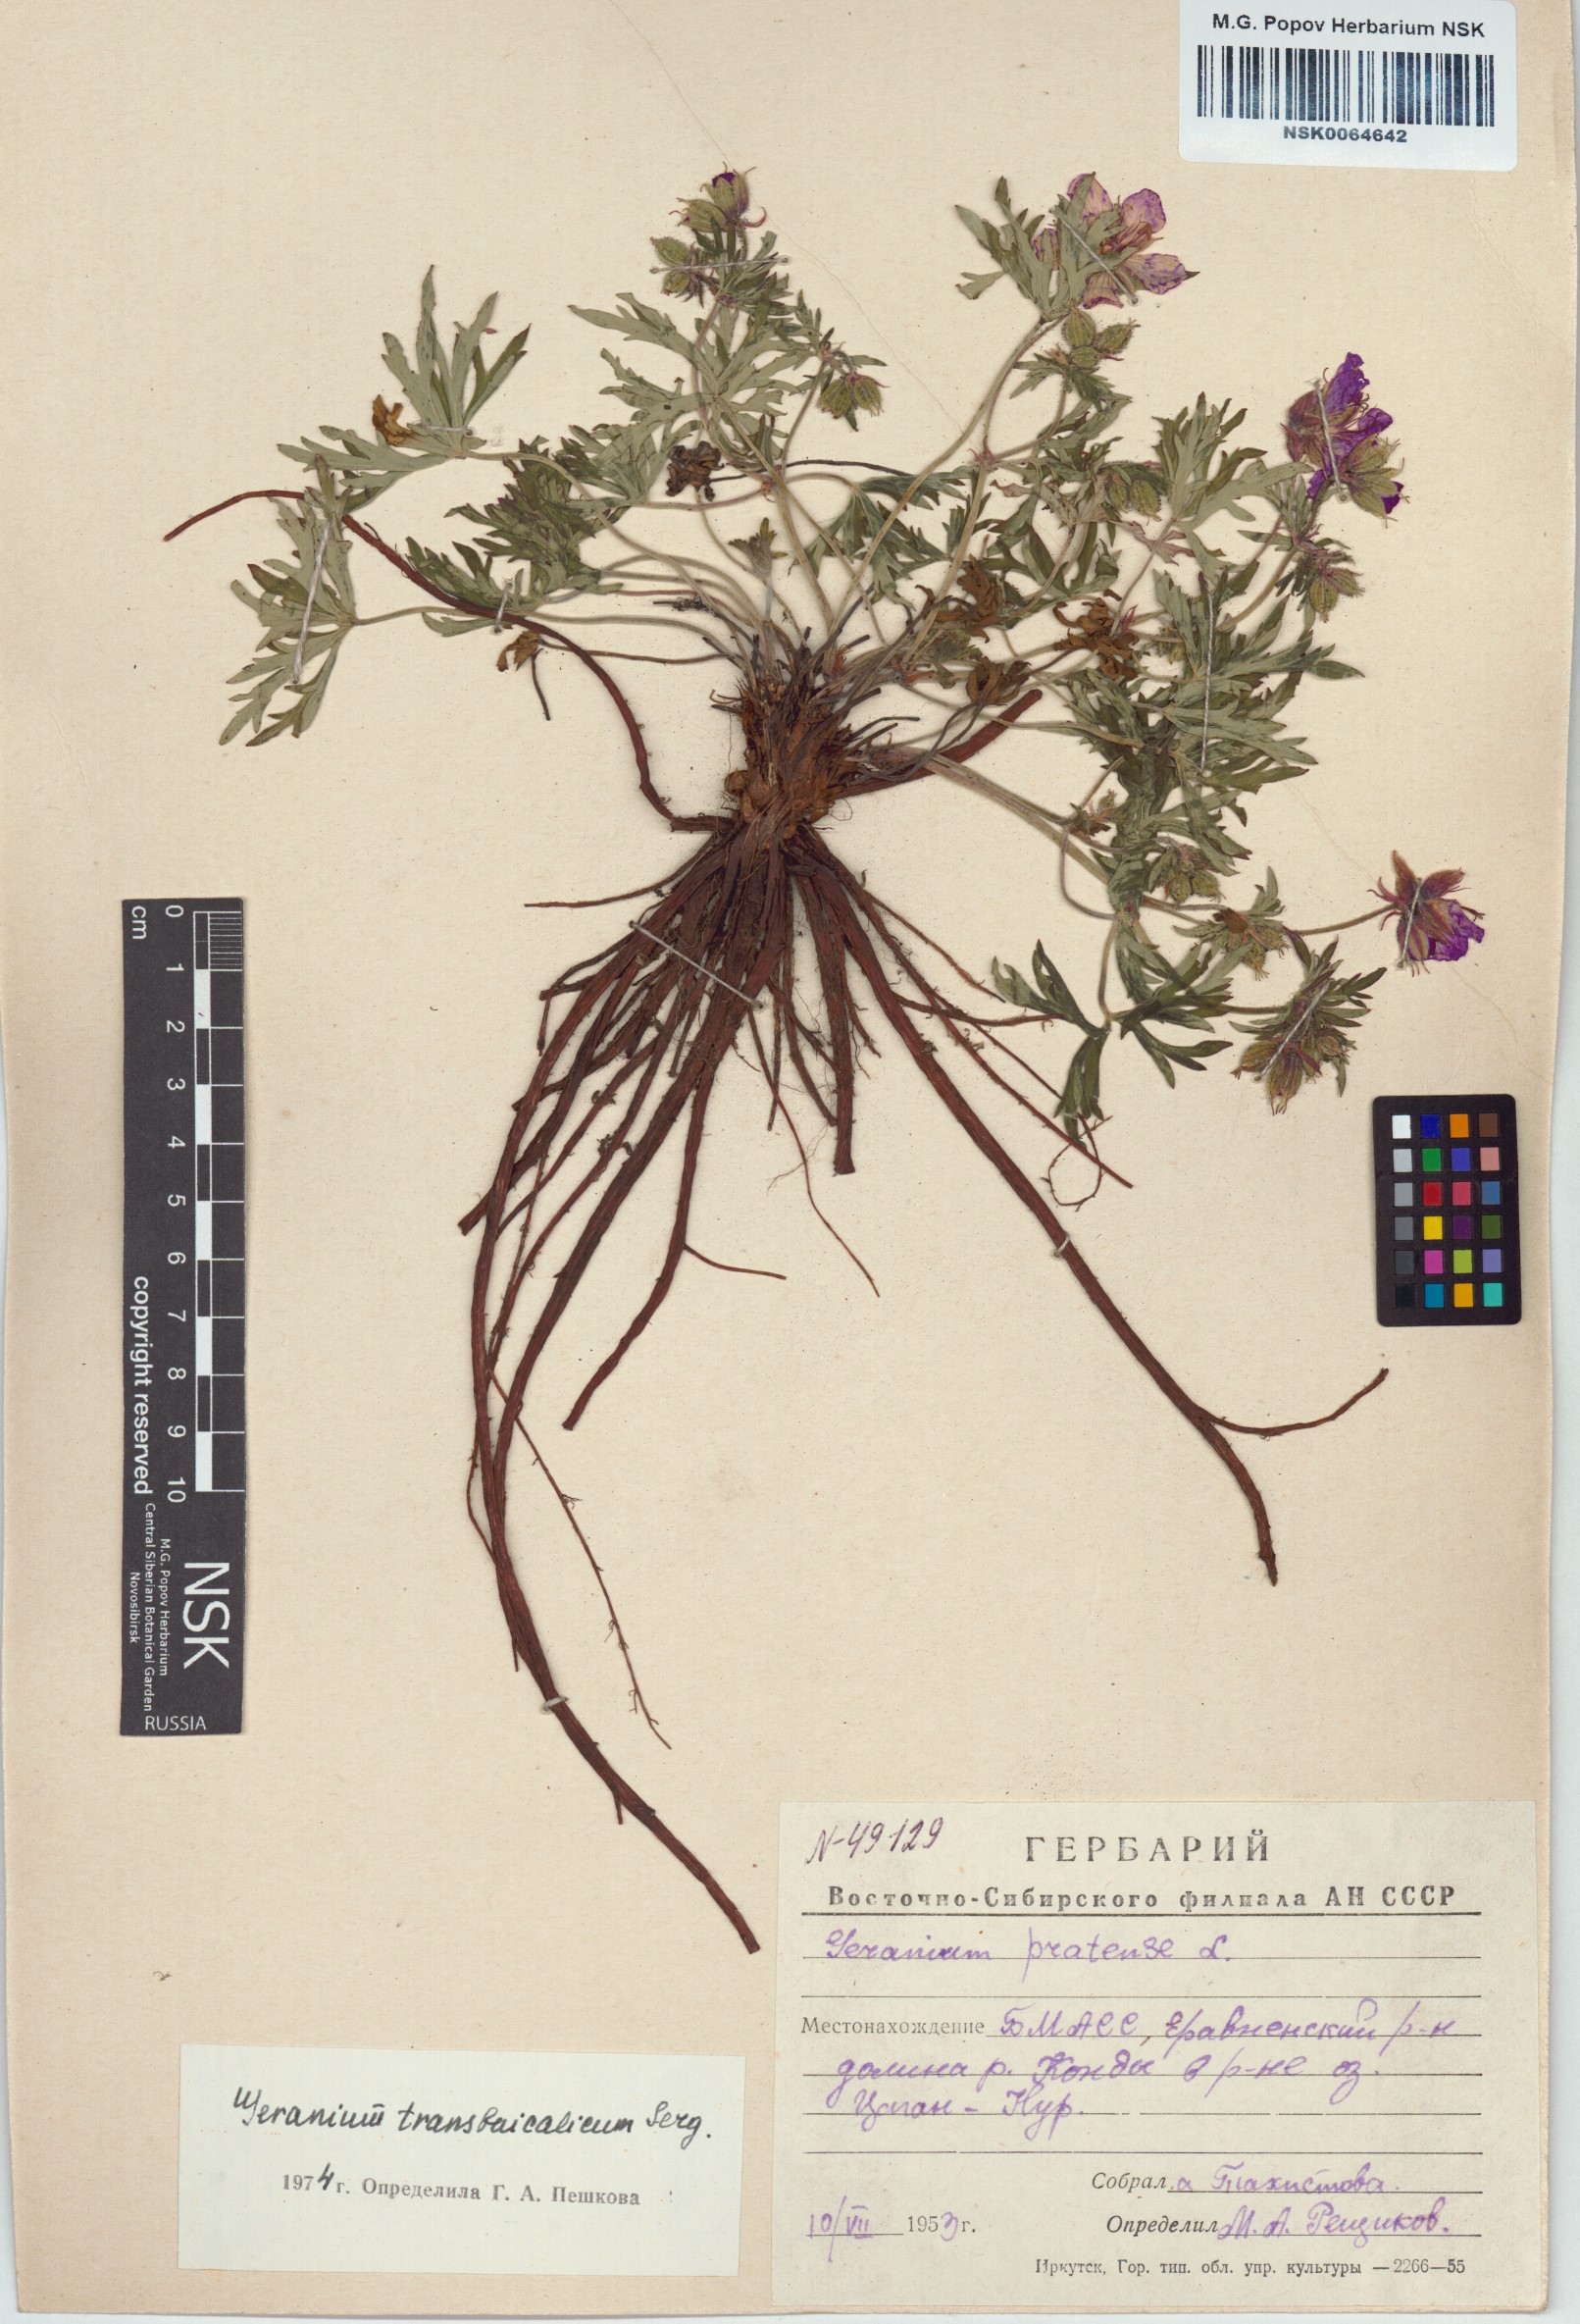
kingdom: Plantae
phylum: Tracheophyta
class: Magnoliopsida
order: Geraniales
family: Geraniaceae
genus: Geranium
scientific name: Geranium pratense
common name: Meadow crane's-bill
